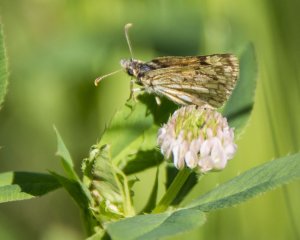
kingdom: Animalia
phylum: Arthropoda
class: Insecta
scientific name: Insecta
